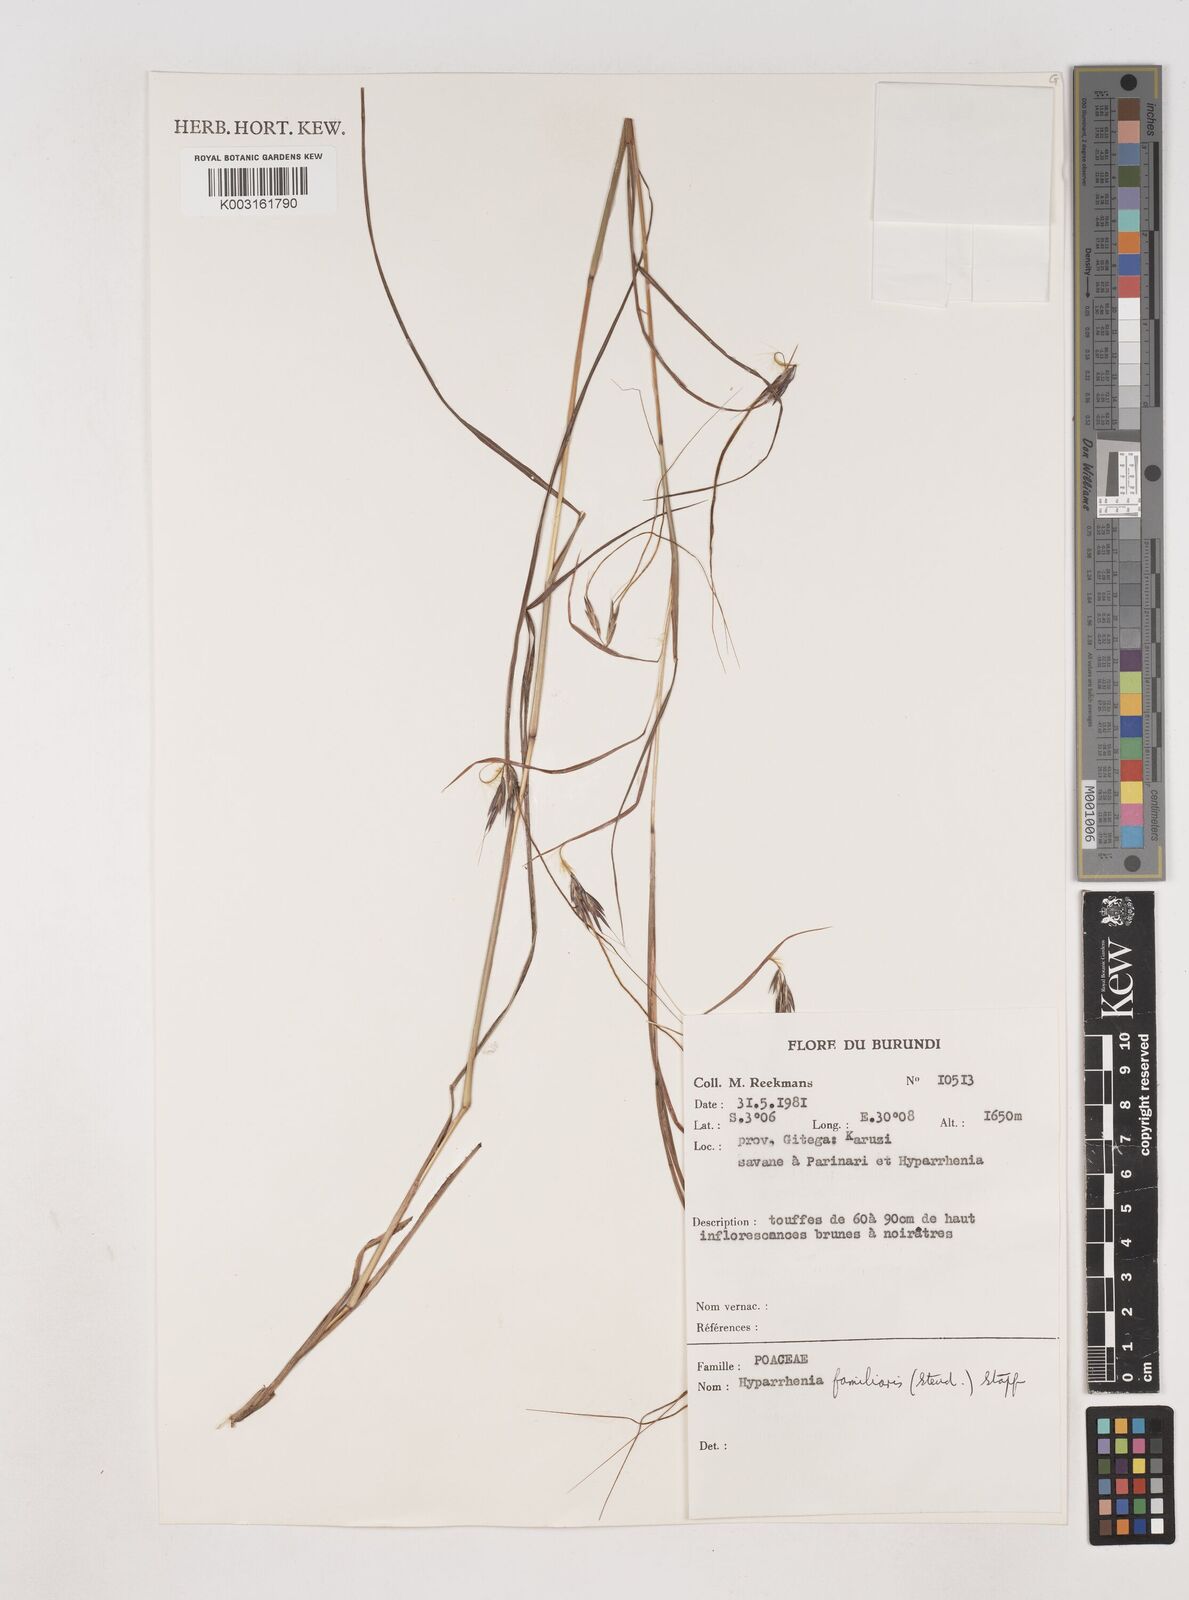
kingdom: Plantae
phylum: Tracheophyta
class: Liliopsida
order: Poales
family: Poaceae
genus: Hyparrhenia
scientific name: Hyparrhenia familiaris
